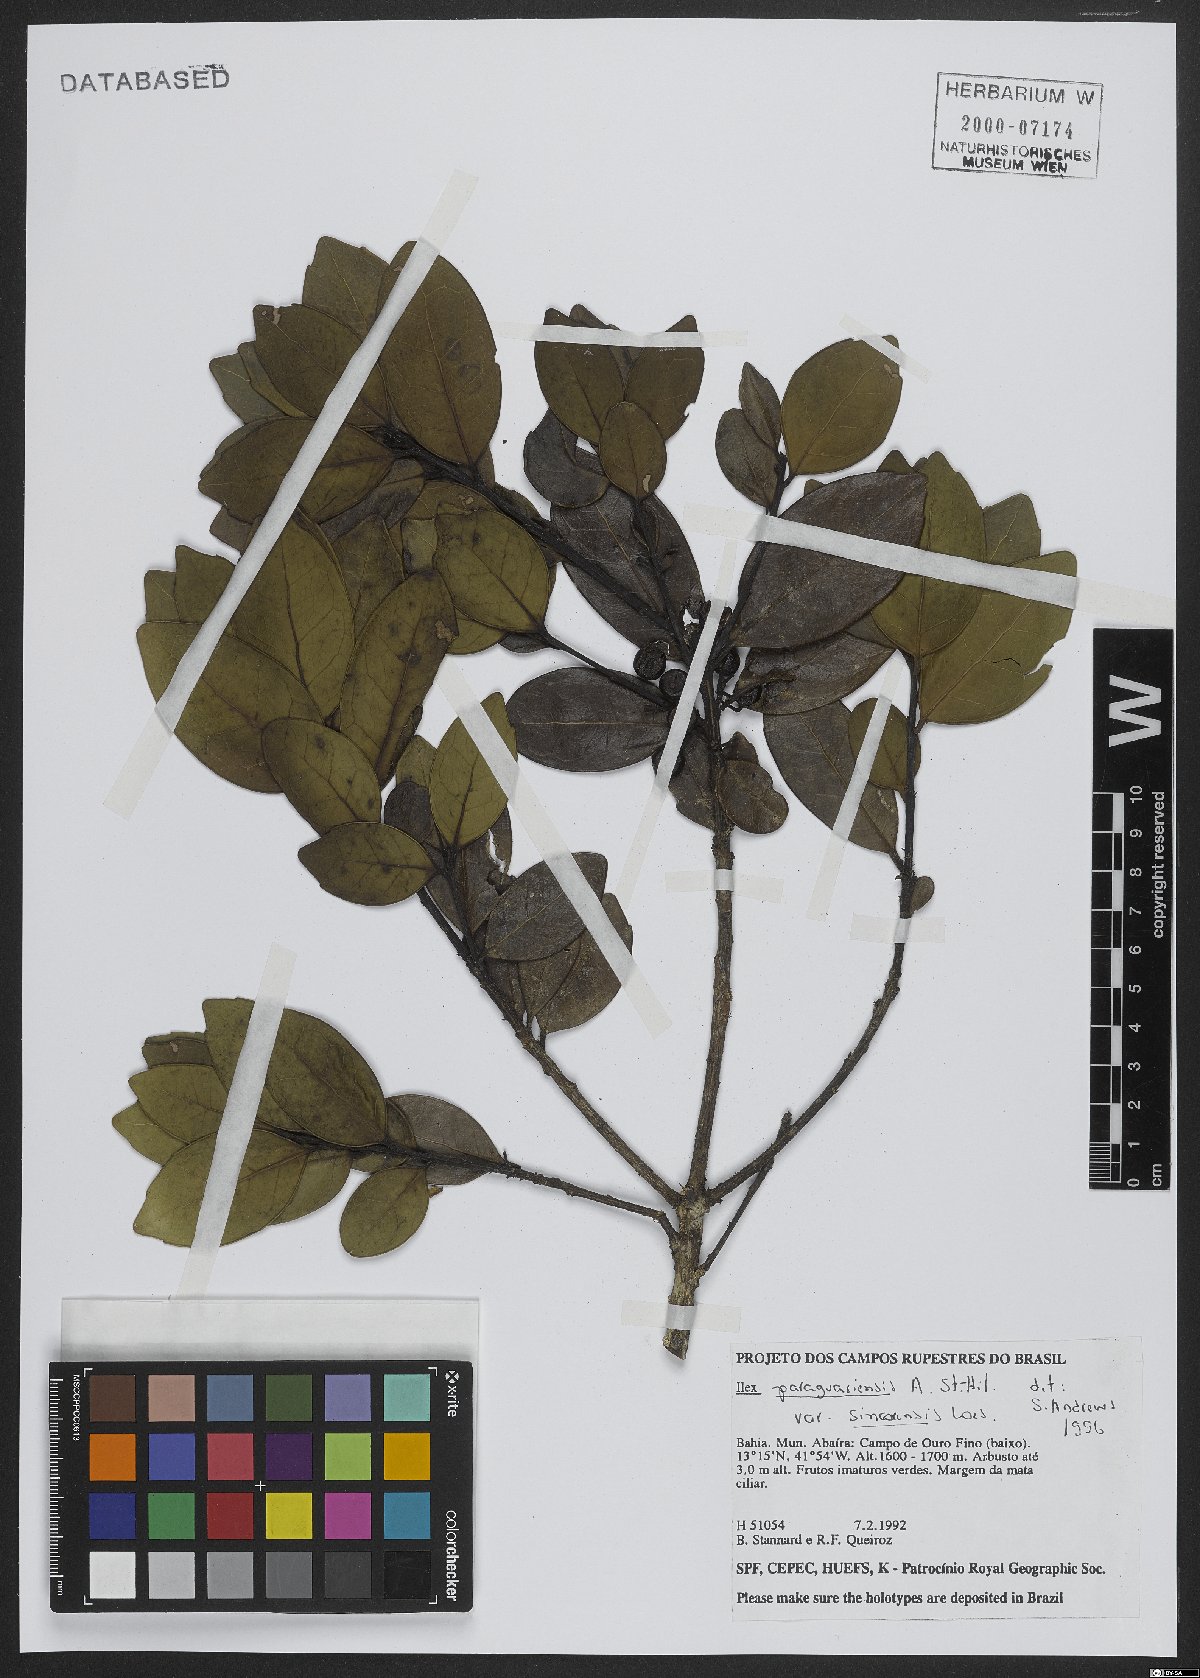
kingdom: Plantae
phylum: Tracheophyta
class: Magnoliopsida
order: Aquifoliales
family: Aquifoliaceae
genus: Ilex
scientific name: Ilex paraguariensis
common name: Paraguay tea
